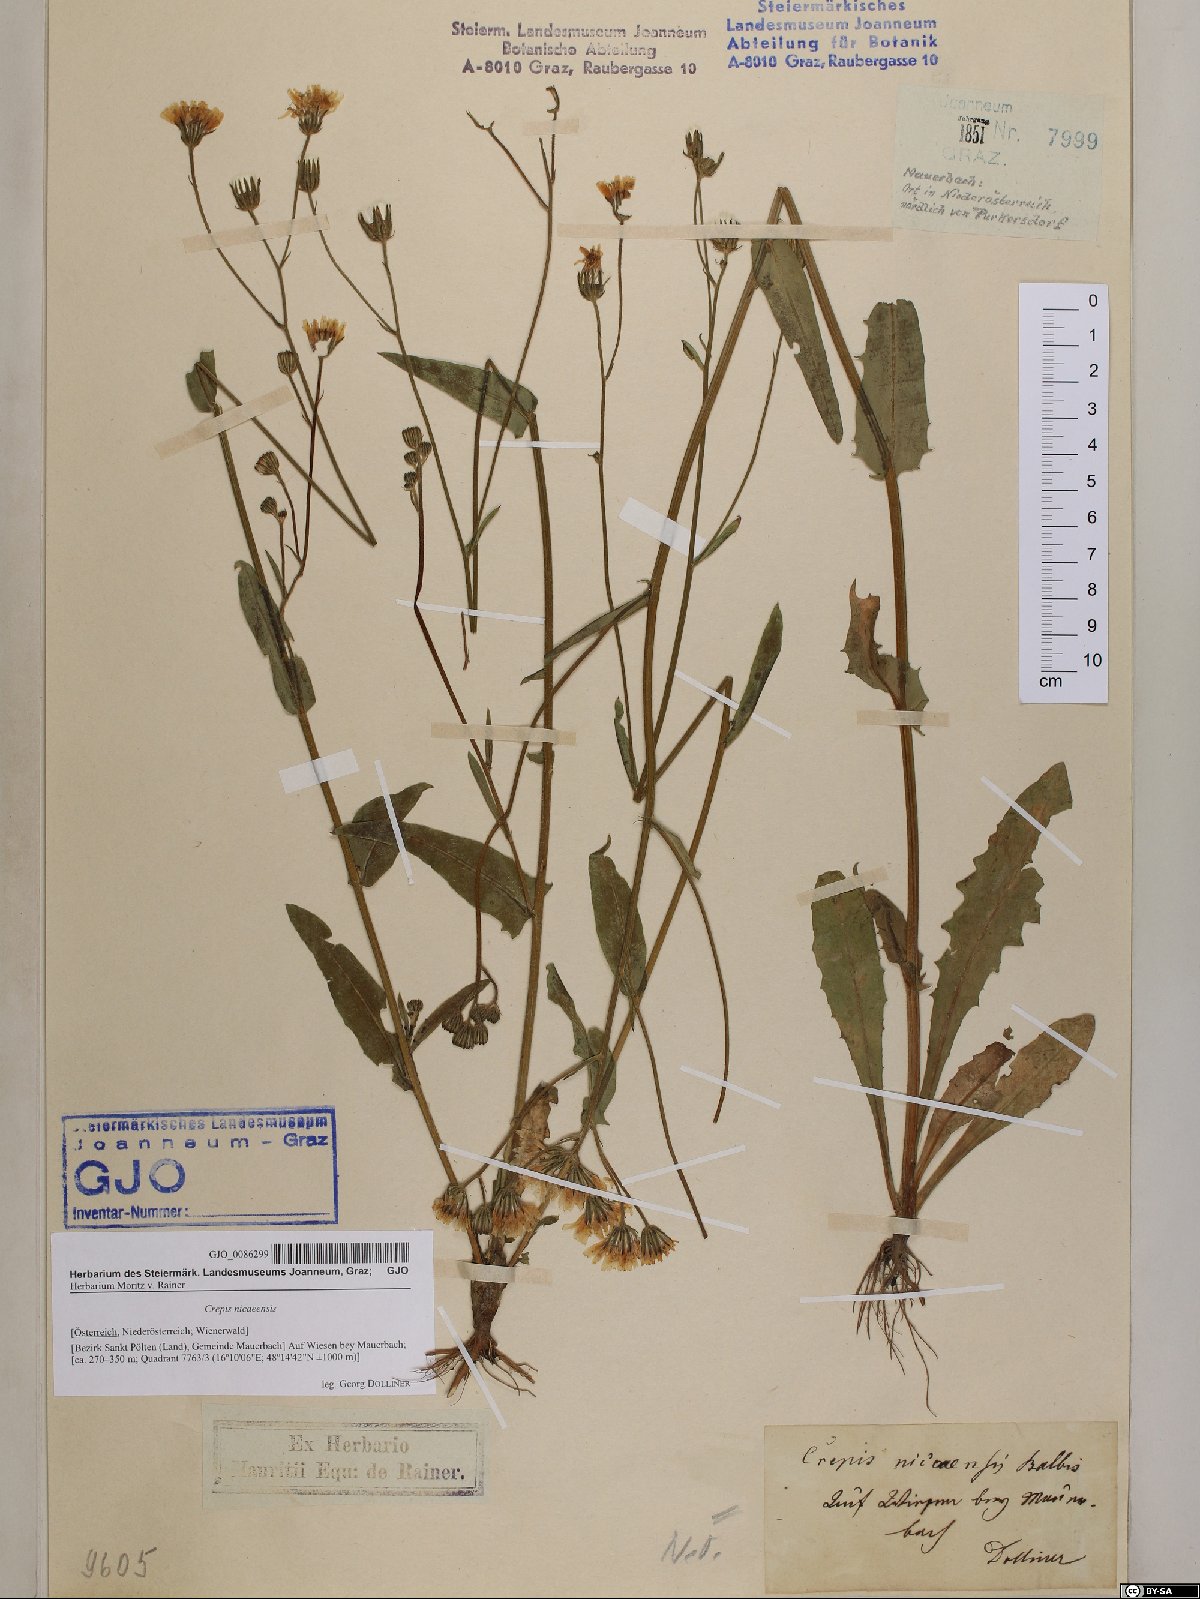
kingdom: Plantae
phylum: Tracheophyta
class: Magnoliopsida
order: Asterales
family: Asteraceae
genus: Crepis
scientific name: Crepis nicaeensis
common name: Turkish hawksbeard
